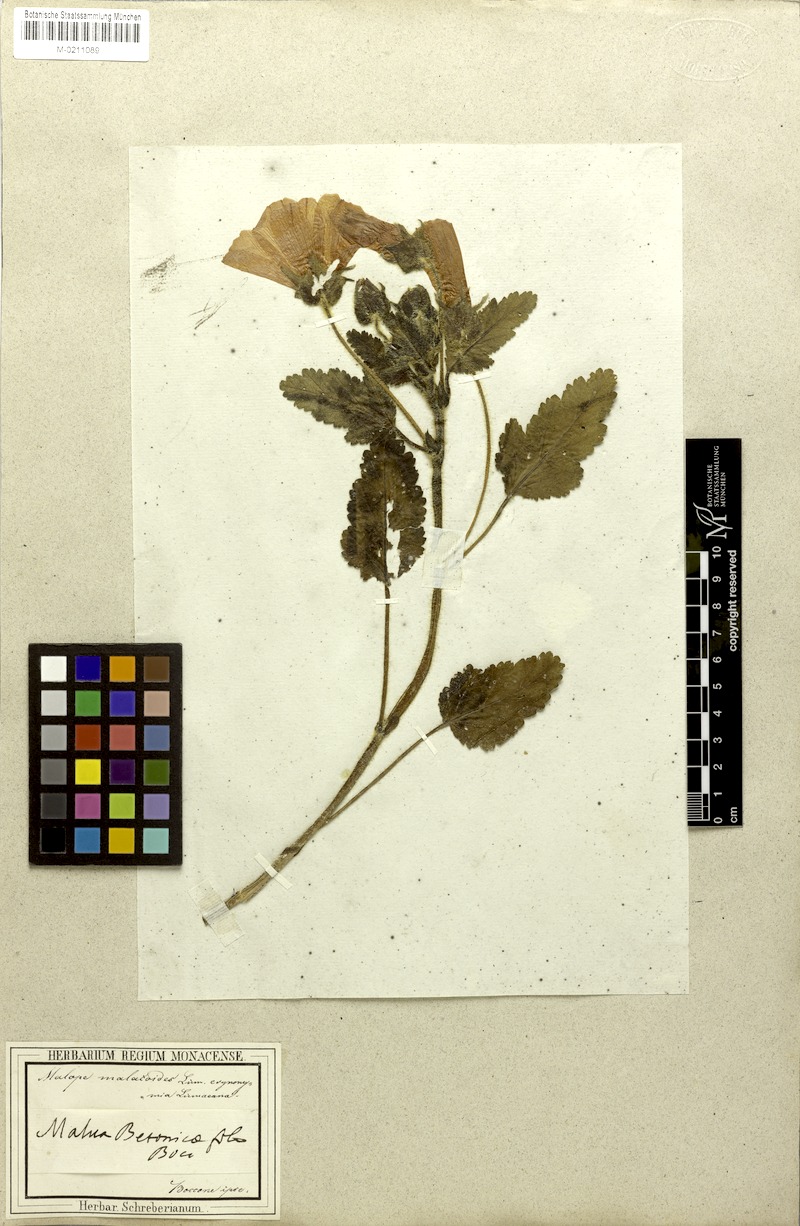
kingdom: Plantae
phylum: Tracheophyta
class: Magnoliopsida
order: Malvales
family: Malvaceae
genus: Malope
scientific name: Malope malacoides
